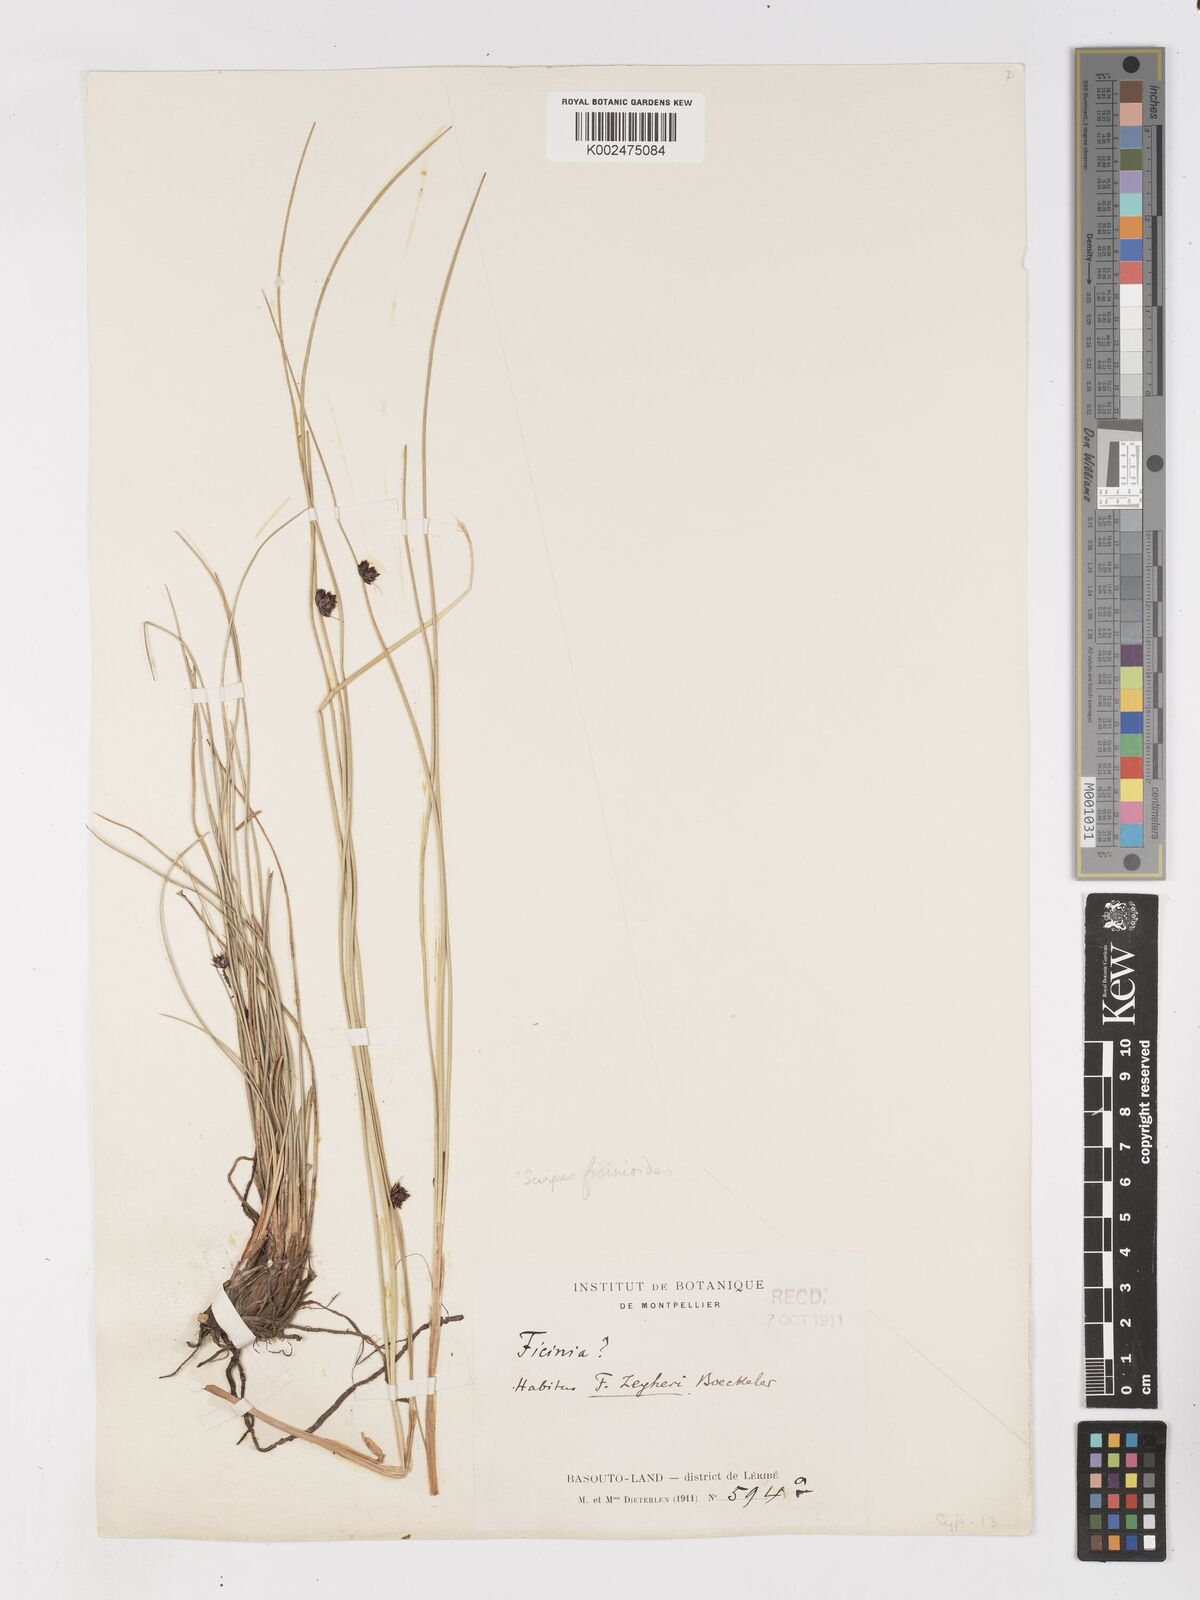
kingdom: Plantae
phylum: Tracheophyta
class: Liliopsida
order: Poales
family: Cyperaceae
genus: Ficinia
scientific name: Ficinia
